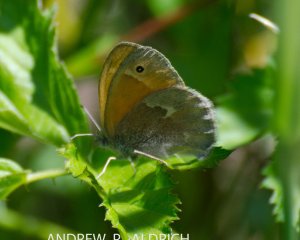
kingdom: Animalia
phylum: Arthropoda
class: Insecta
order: Lepidoptera
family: Nymphalidae
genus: Coenonympha
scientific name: Coenonympha tullia
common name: Large Heath
